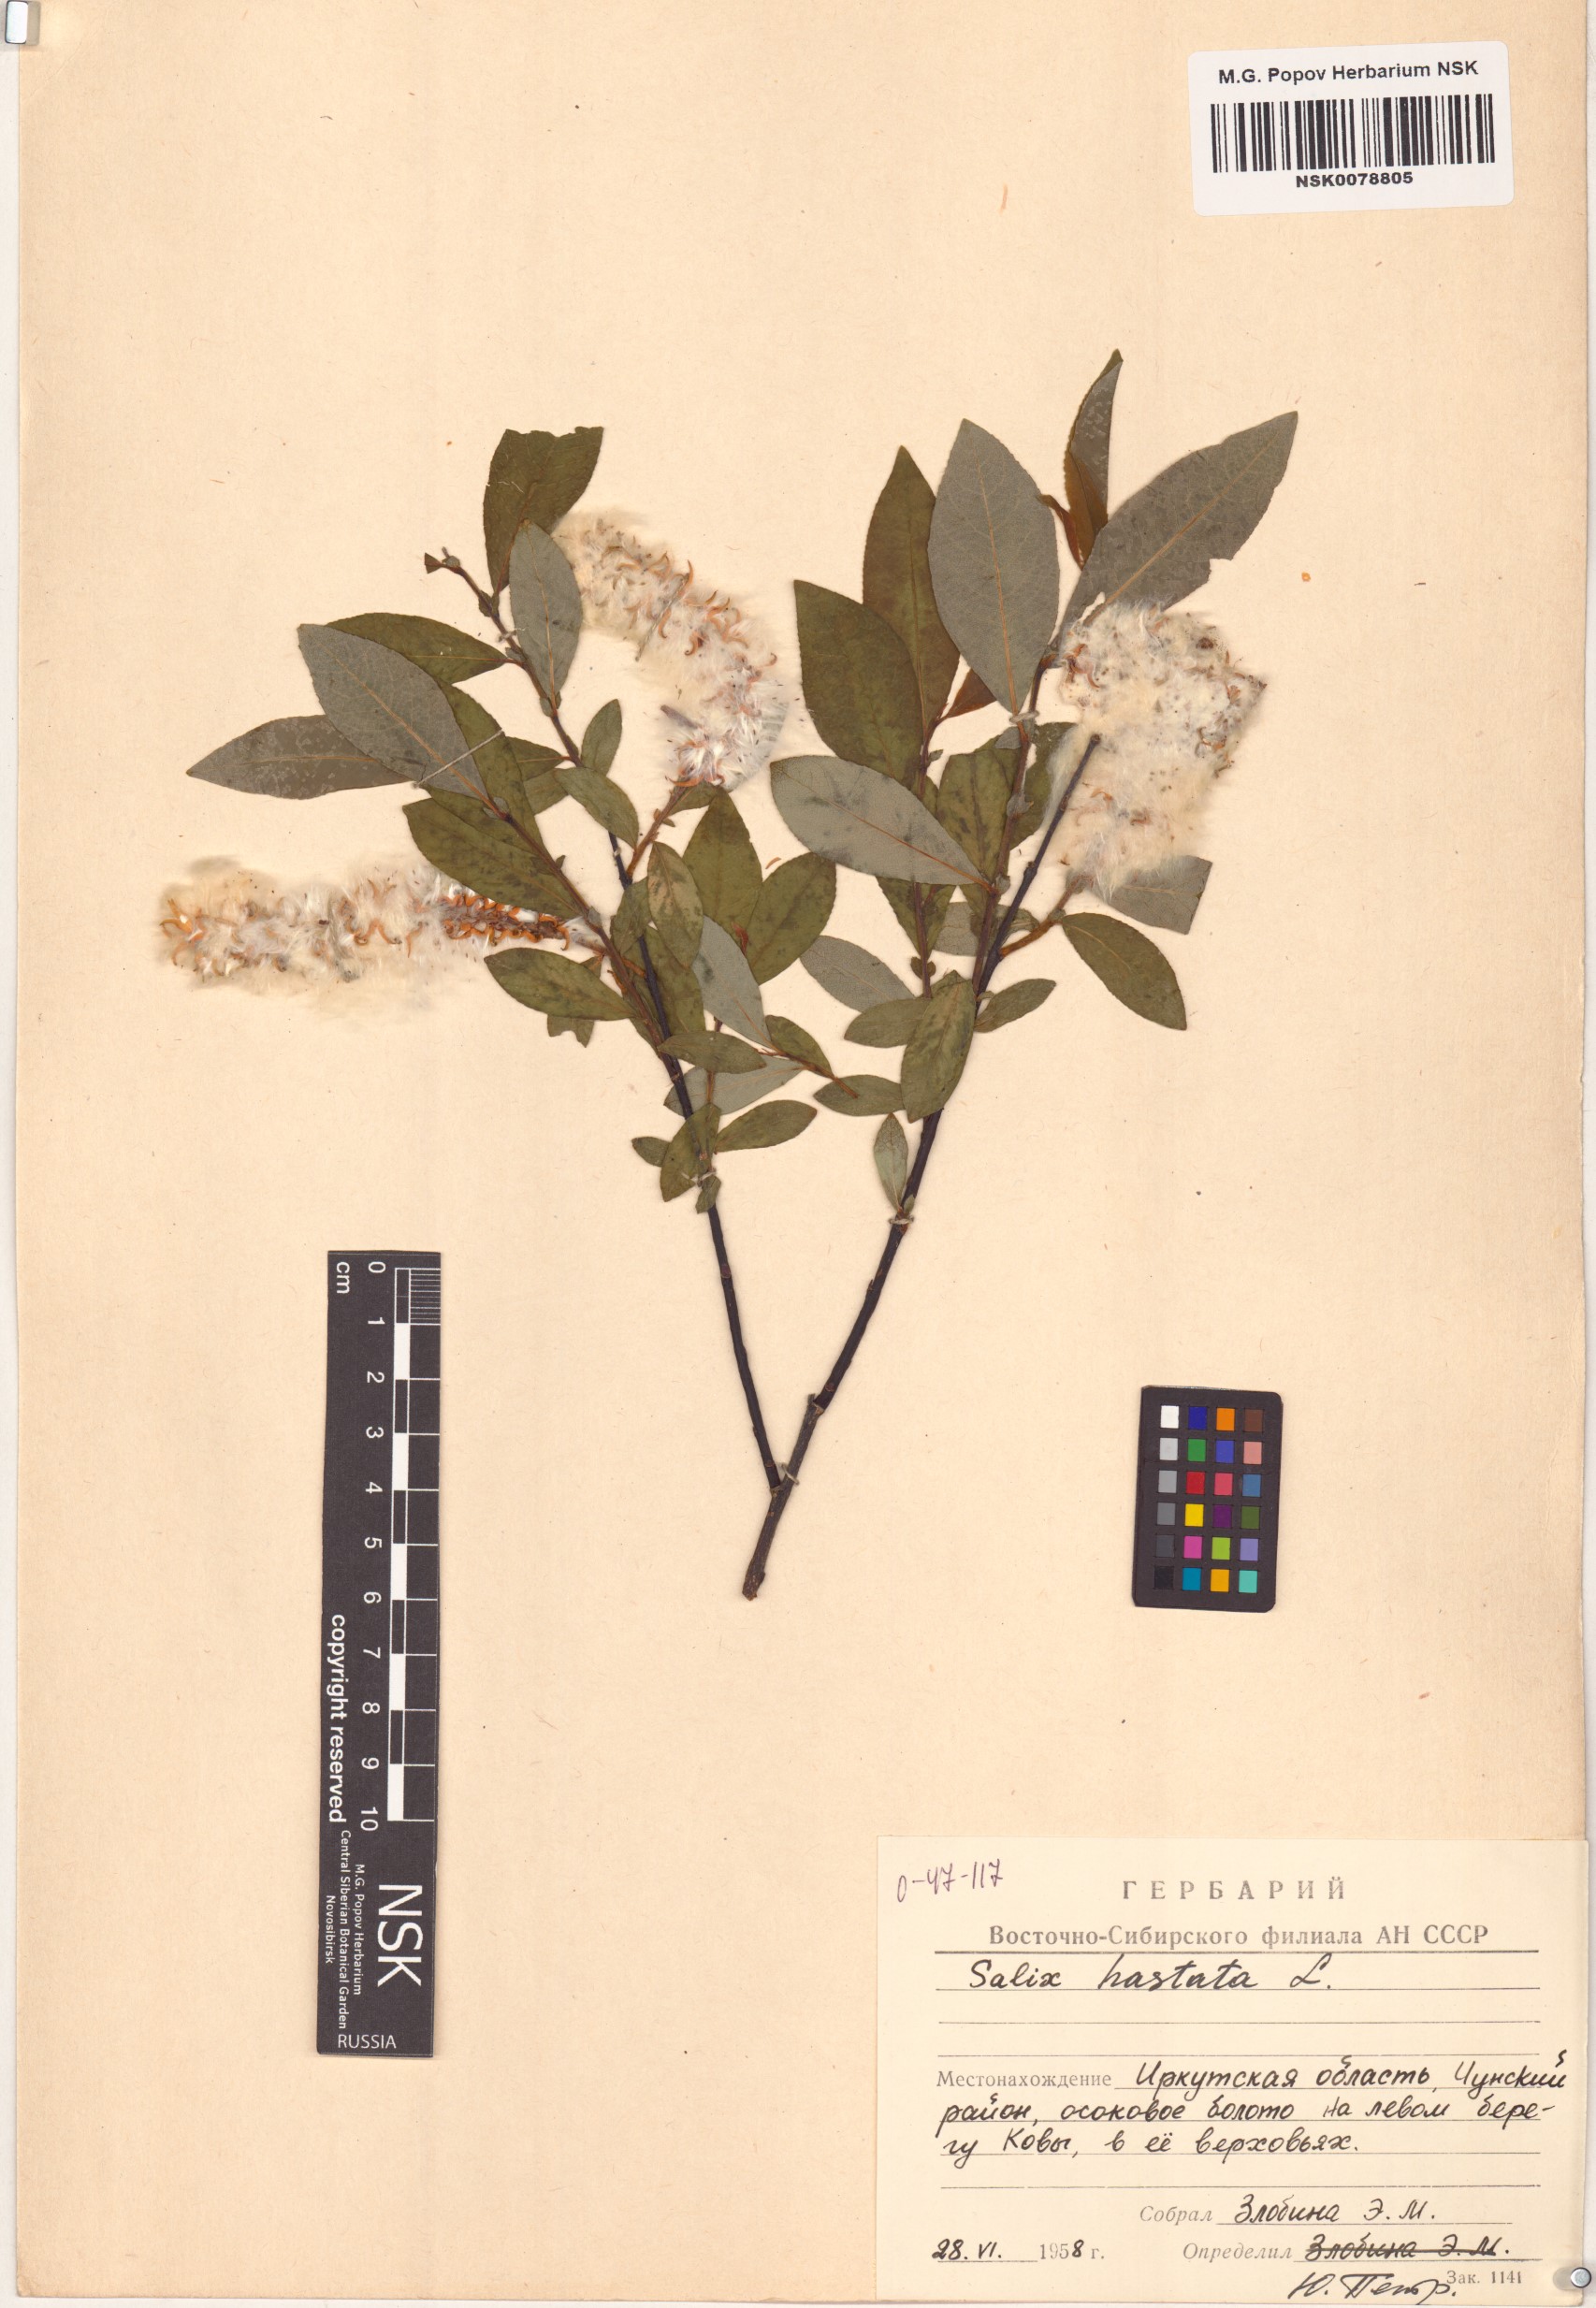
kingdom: Plantae
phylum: Tracheophyta
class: Magnoliopsida
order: Malpighiales
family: Salicaceae
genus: Salix
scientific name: Salix hastata
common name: Halberd willow
